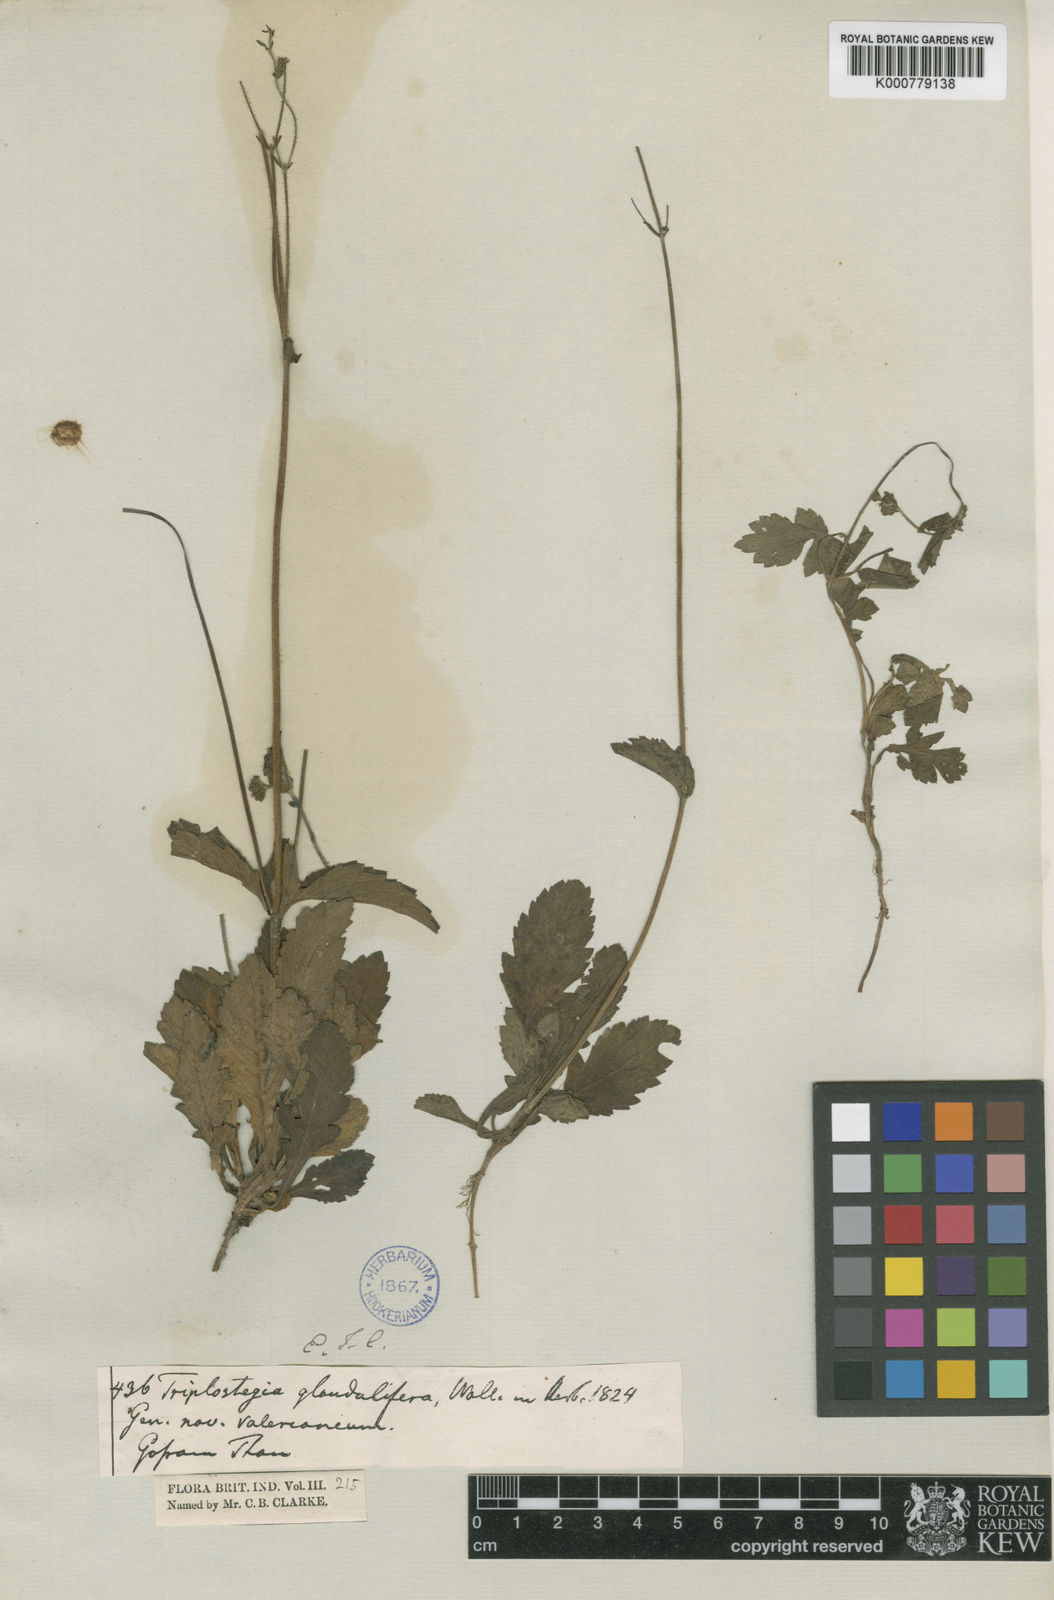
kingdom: Plantae
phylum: Tracheophyta
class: Magnoliopsida
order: Dipsacales
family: Caprifoliaceae
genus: Triplostegia
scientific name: Triplostegia glandulifera
